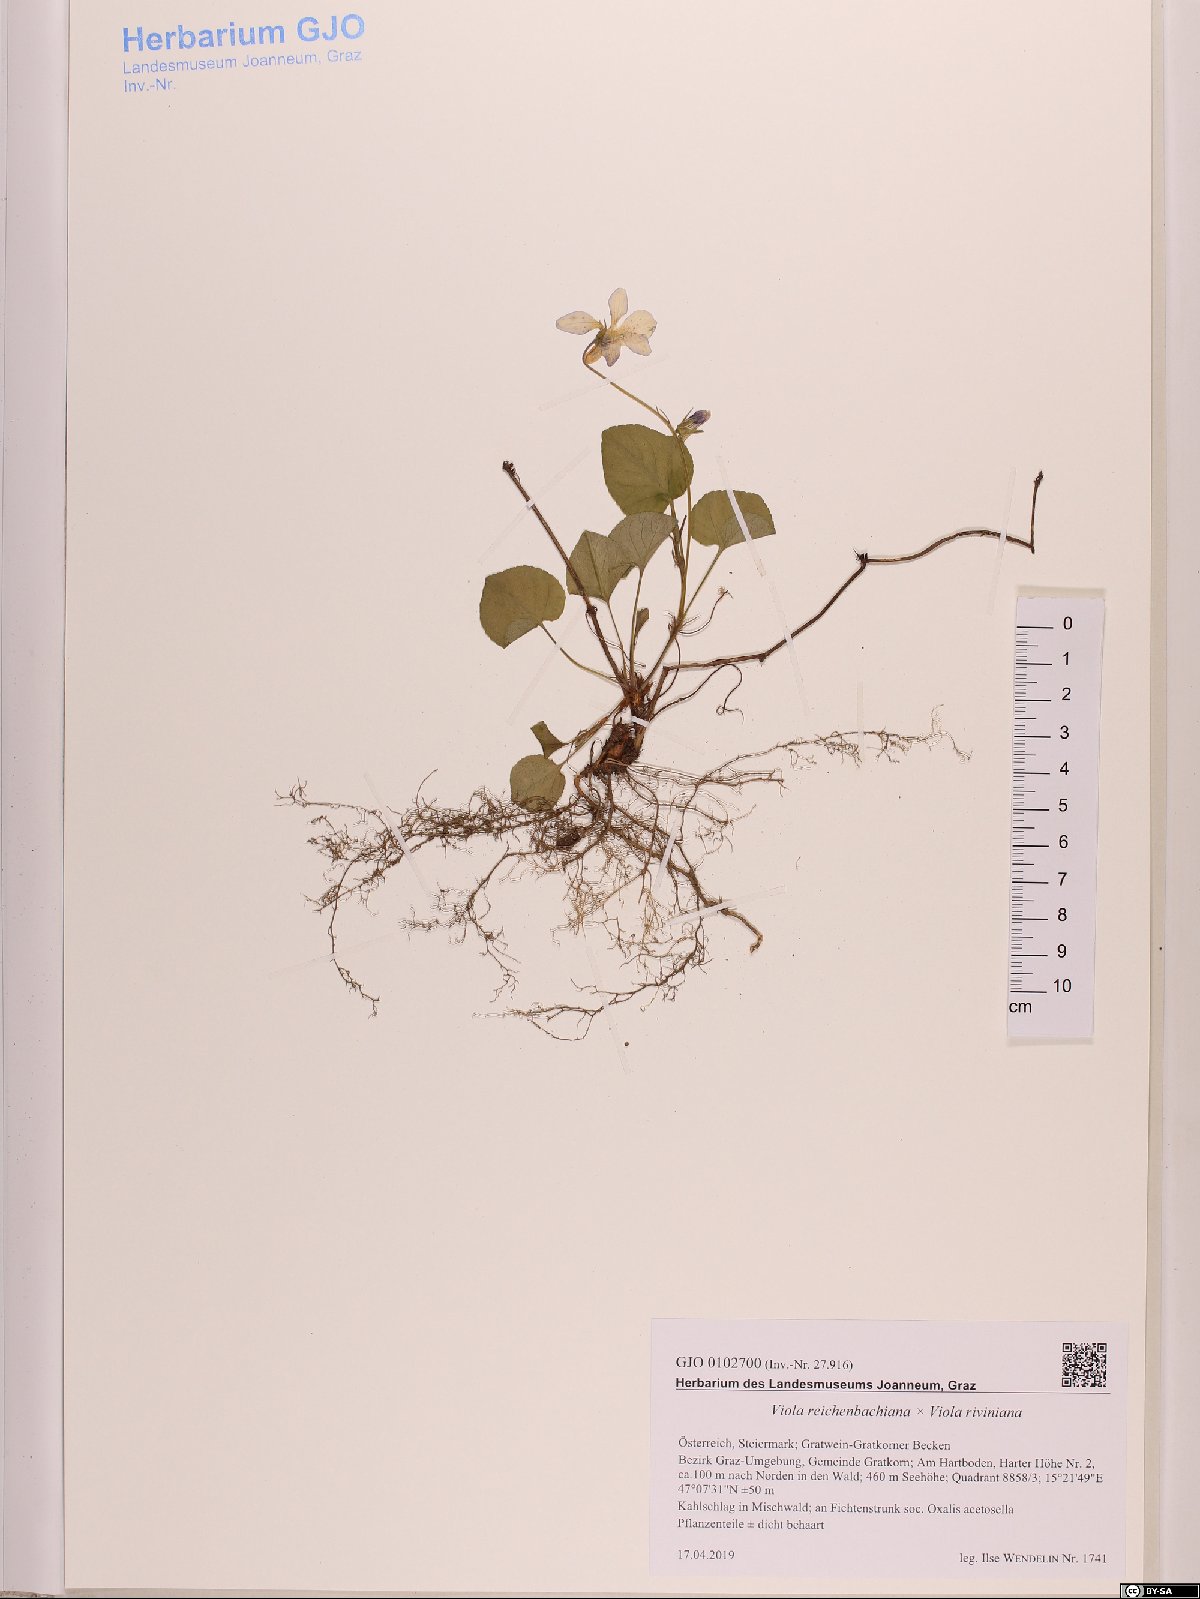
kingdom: Plantae
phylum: Tracheophyta
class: Magnoliopsida
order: Malpighiales
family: Violaceae
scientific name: Violaceae
